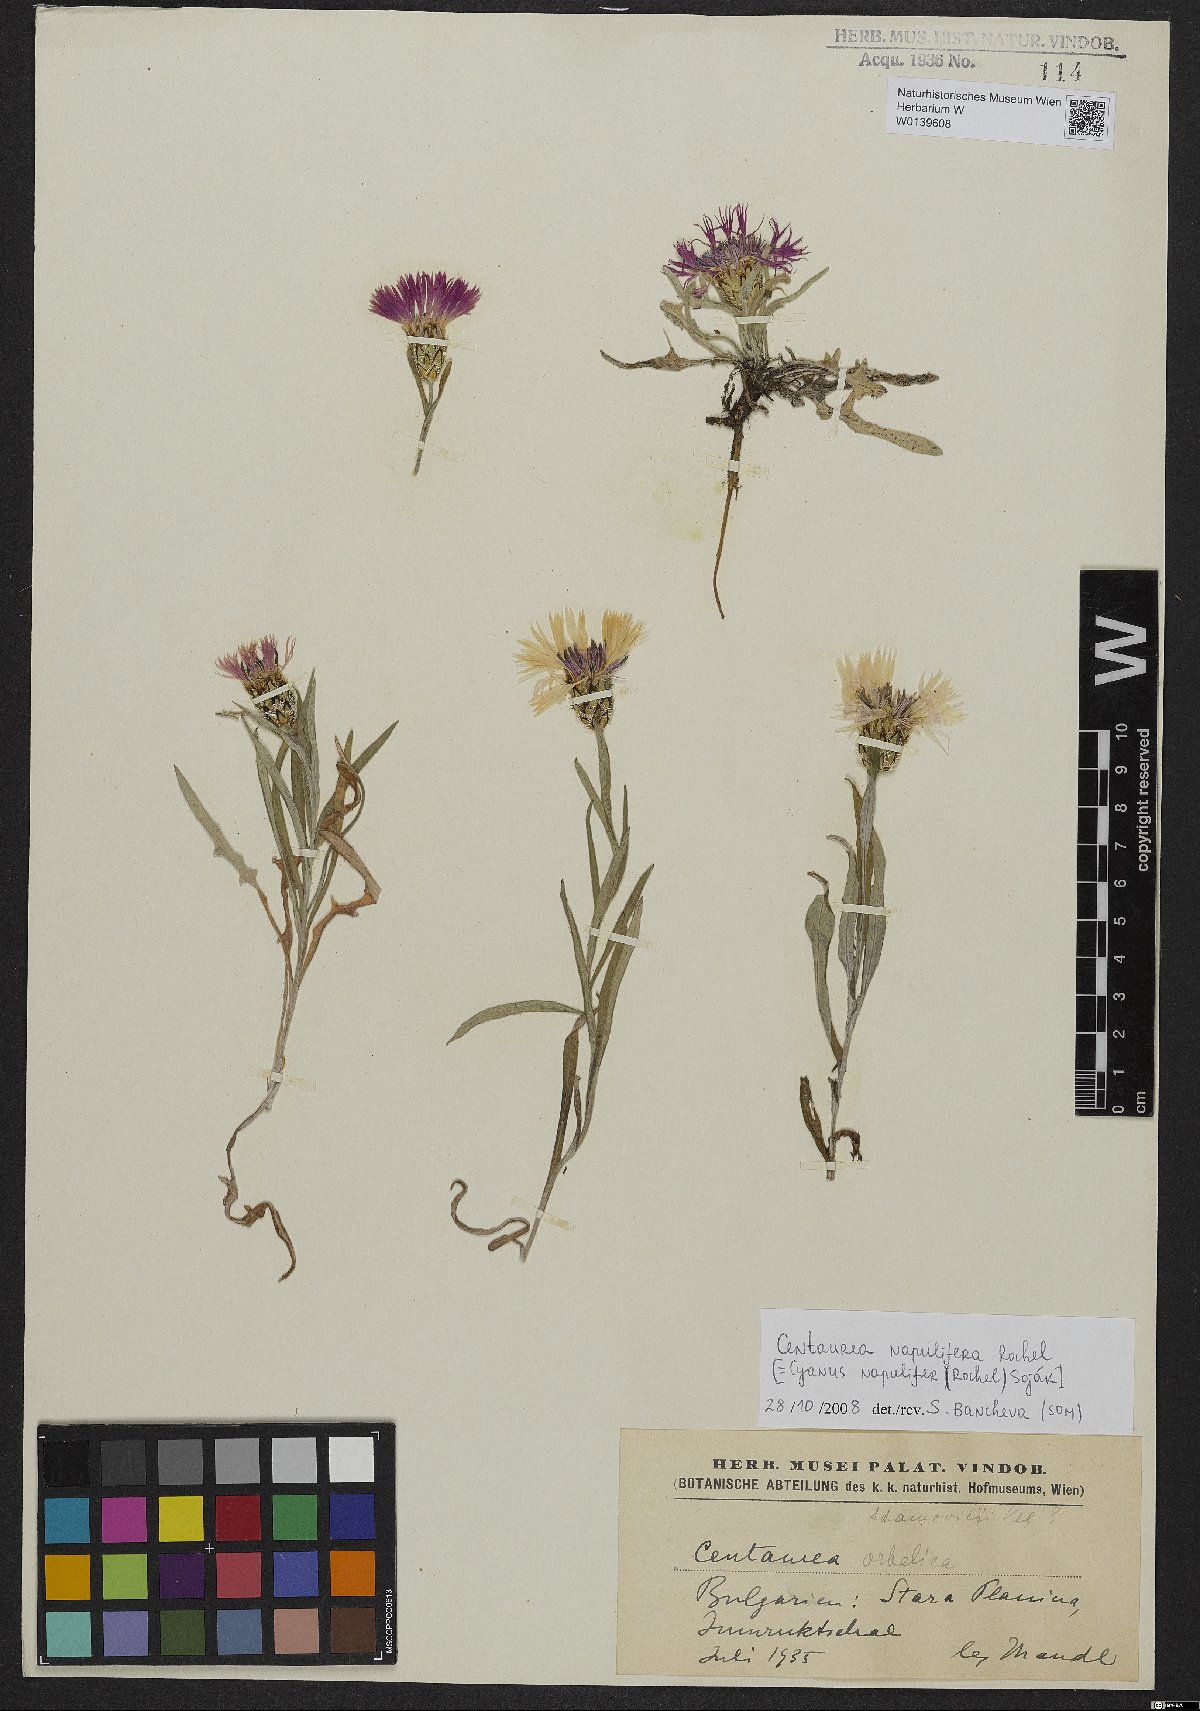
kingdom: Plantae
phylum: Tracheophyta
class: Magnoliopsida
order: Asterales
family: Asteraceae
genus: Centaurea
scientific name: Centaurea napulifera
